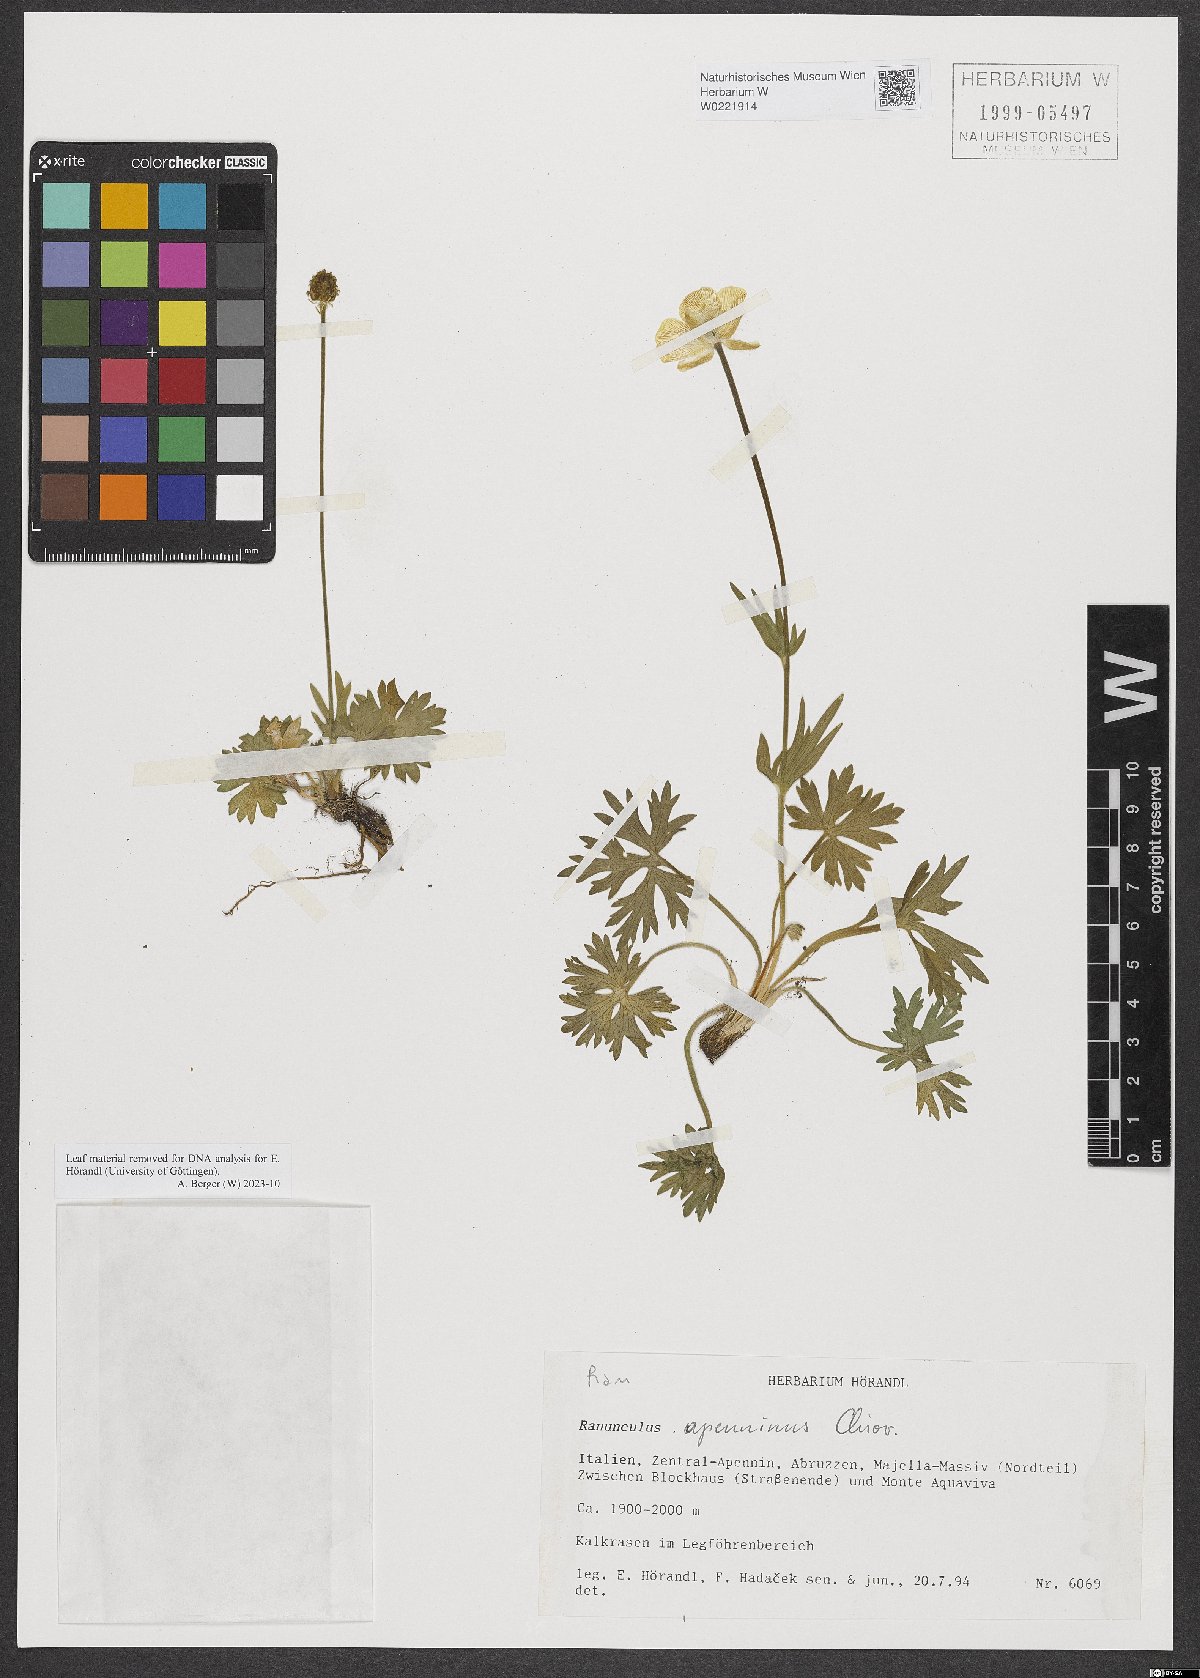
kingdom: Plantae
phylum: Tracheophyta
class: Magnoliopsida
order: Ranunculales
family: Ranunculaceae
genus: Ranunculus
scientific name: Ranunculus apenninus
